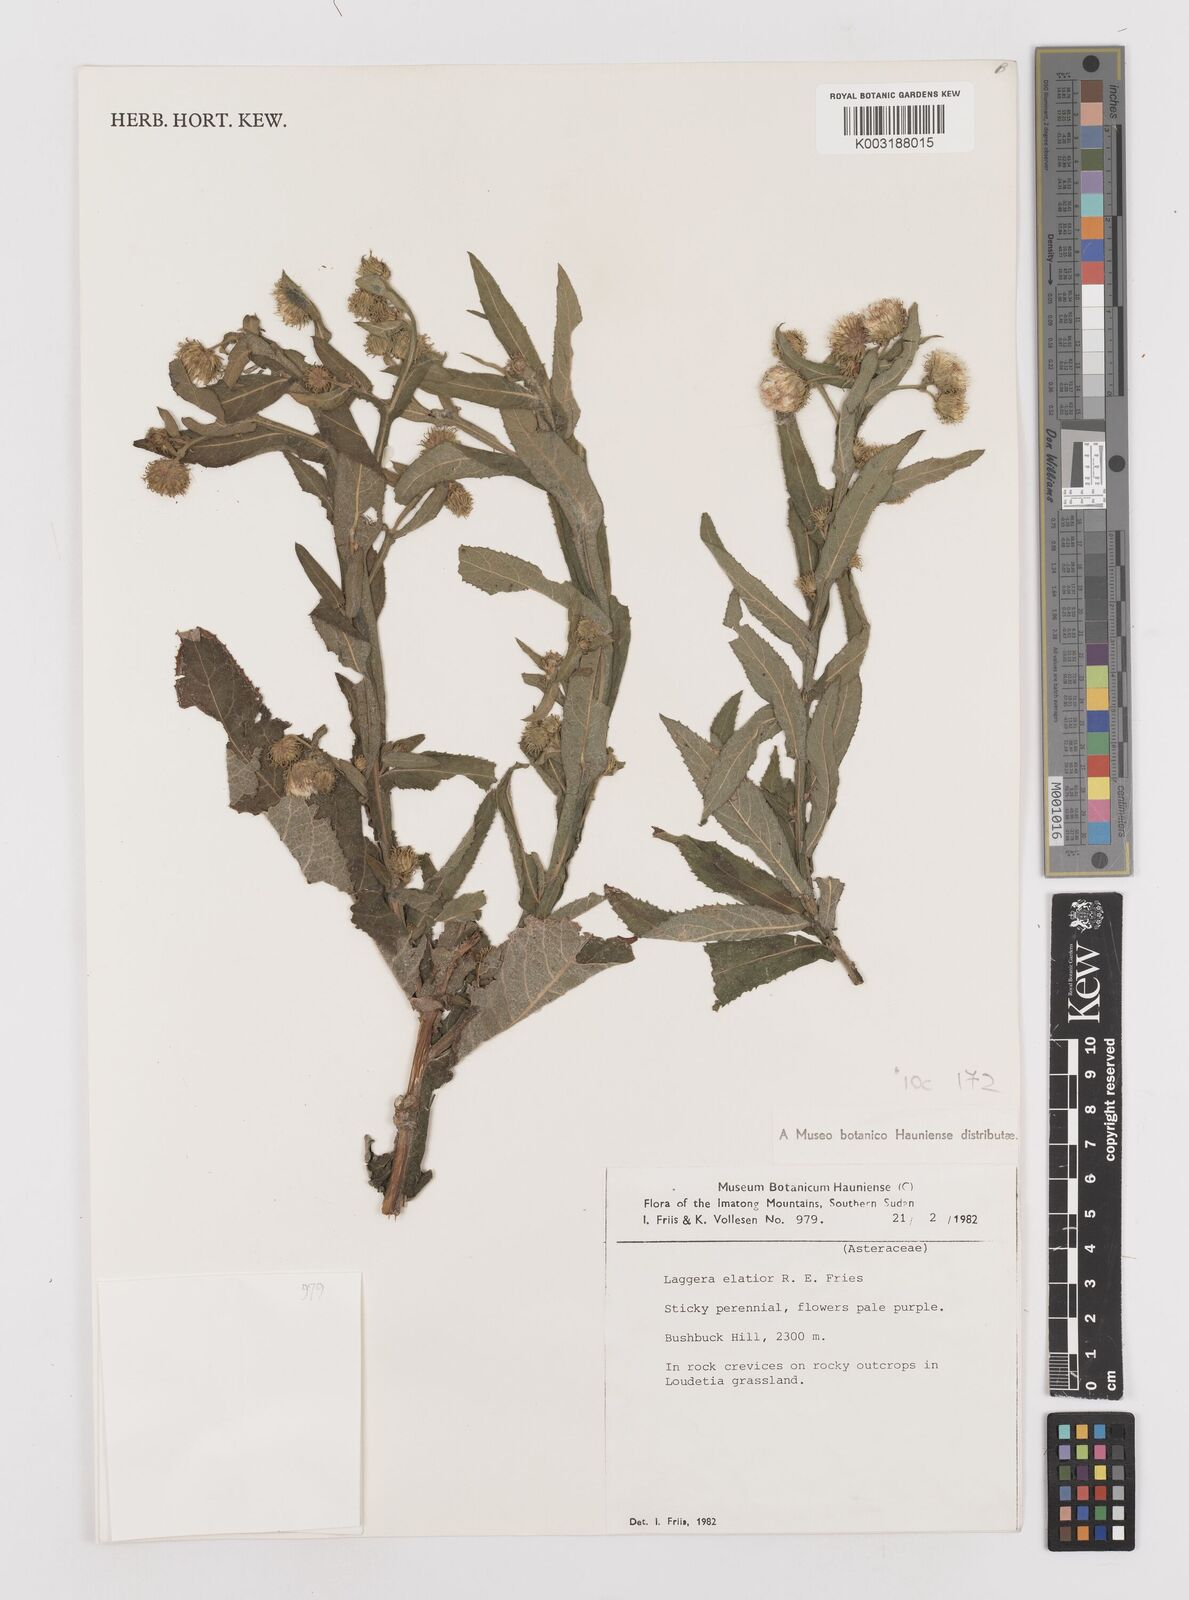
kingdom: Plantae
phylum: Tracheophyta
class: Magnoliopsida
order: Asterales
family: Asteraceae
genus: Laggera
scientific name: Laggera
